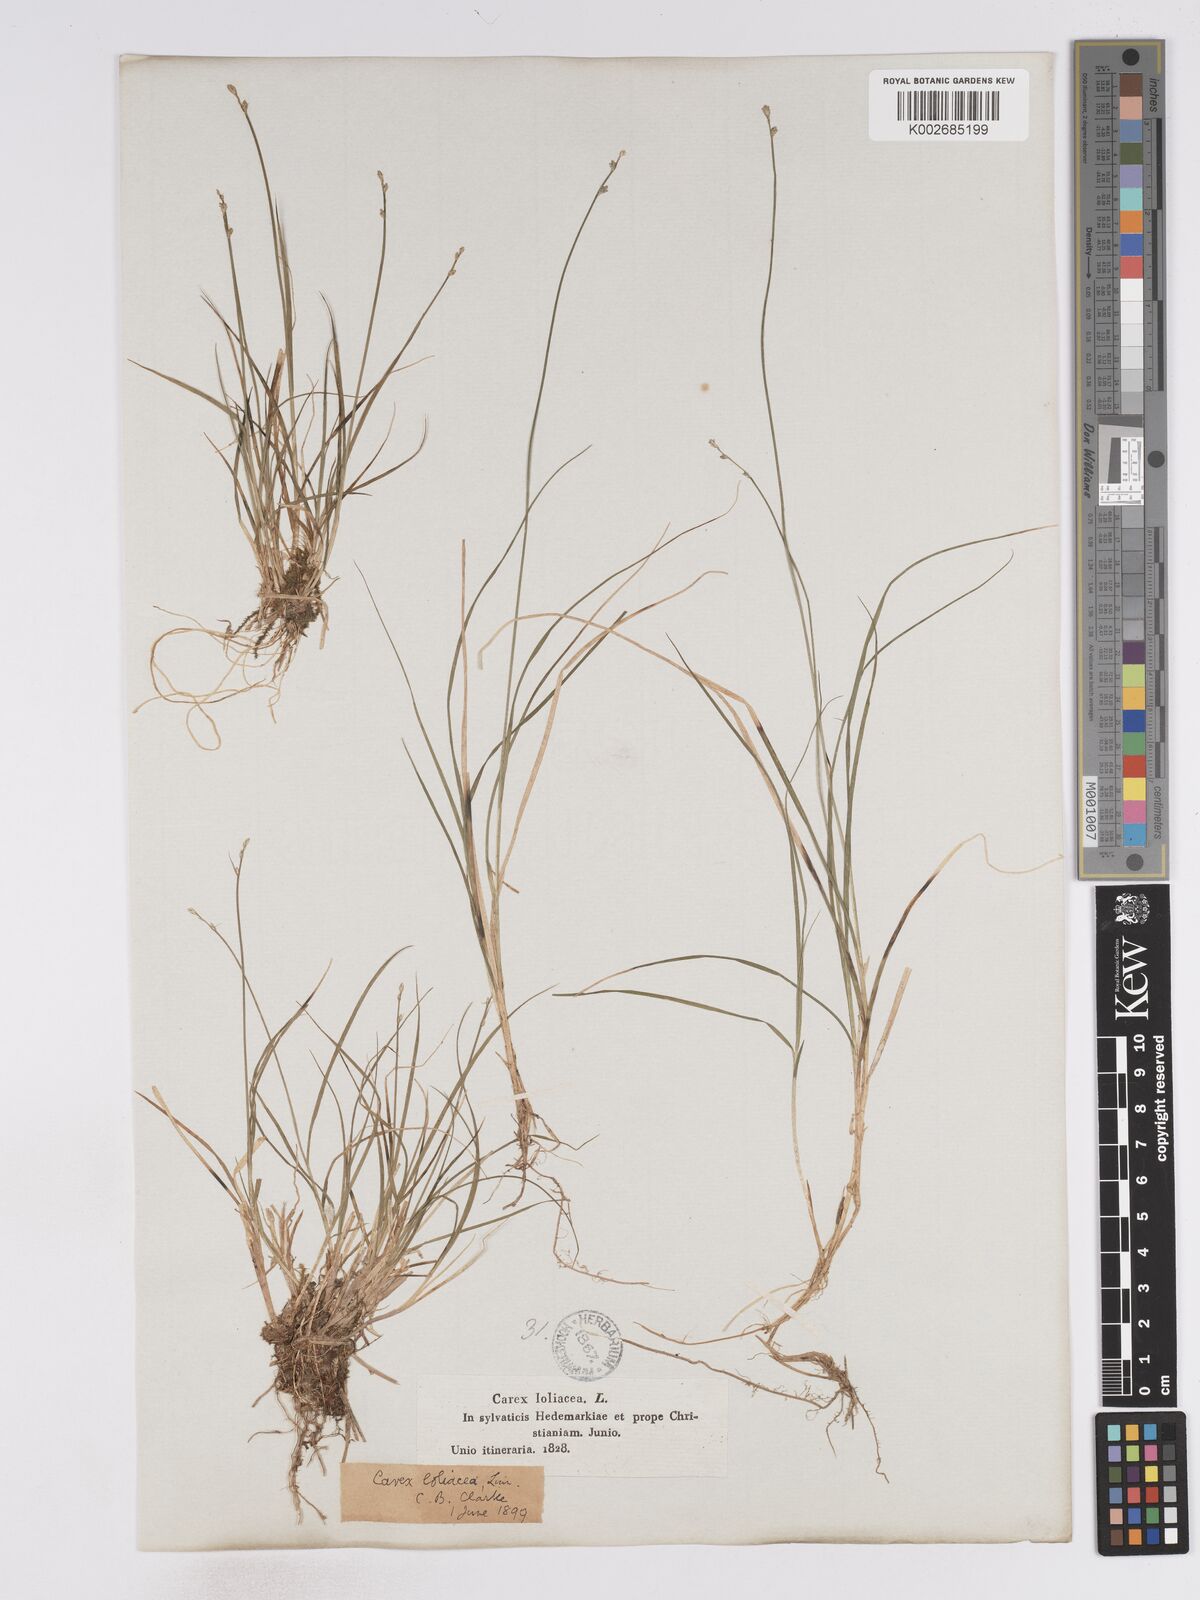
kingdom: Plantae
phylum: Tracheophyta
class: Liliopsida
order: Poales
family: Cyperaceae
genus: Carex
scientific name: Carex loliacea
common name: Ryegrass sedge
